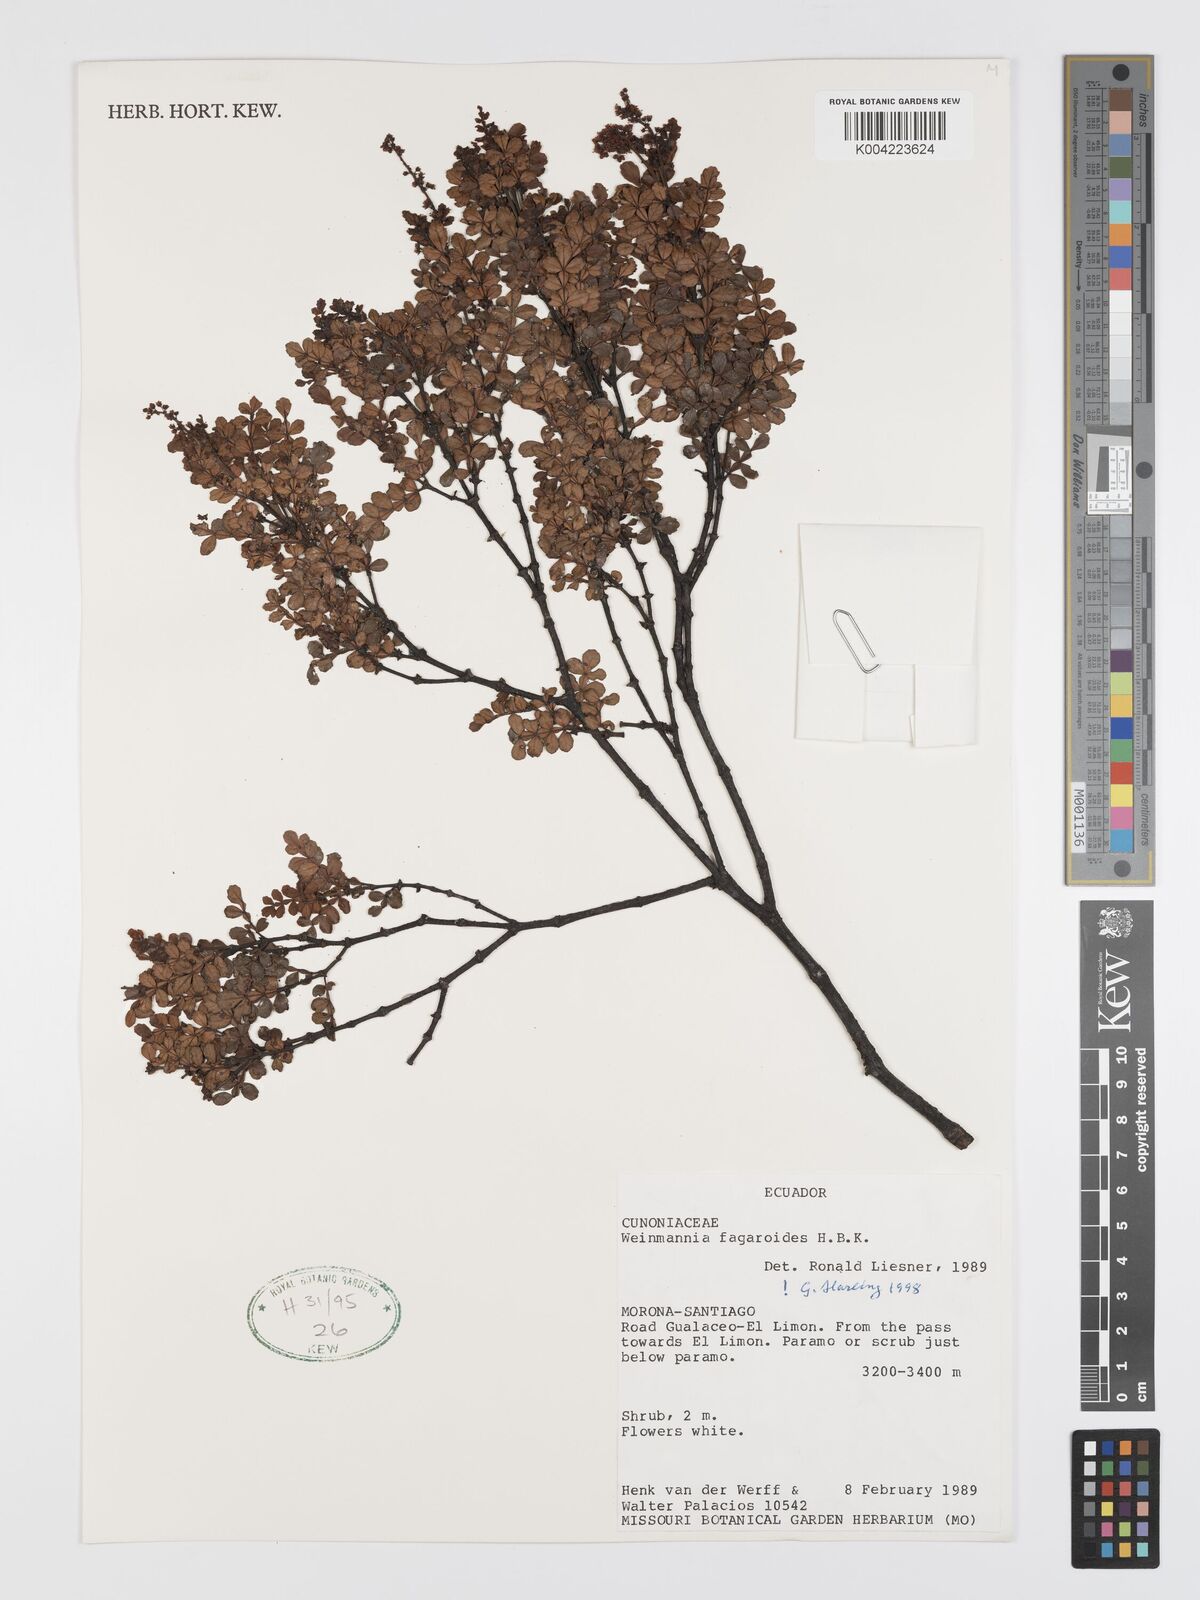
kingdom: Plantae
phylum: Tracheophyta
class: Magnoliopsida
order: Oxalidales
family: Cunoniaceae
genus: Weinmannia
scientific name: Weinmannia fagaroides
